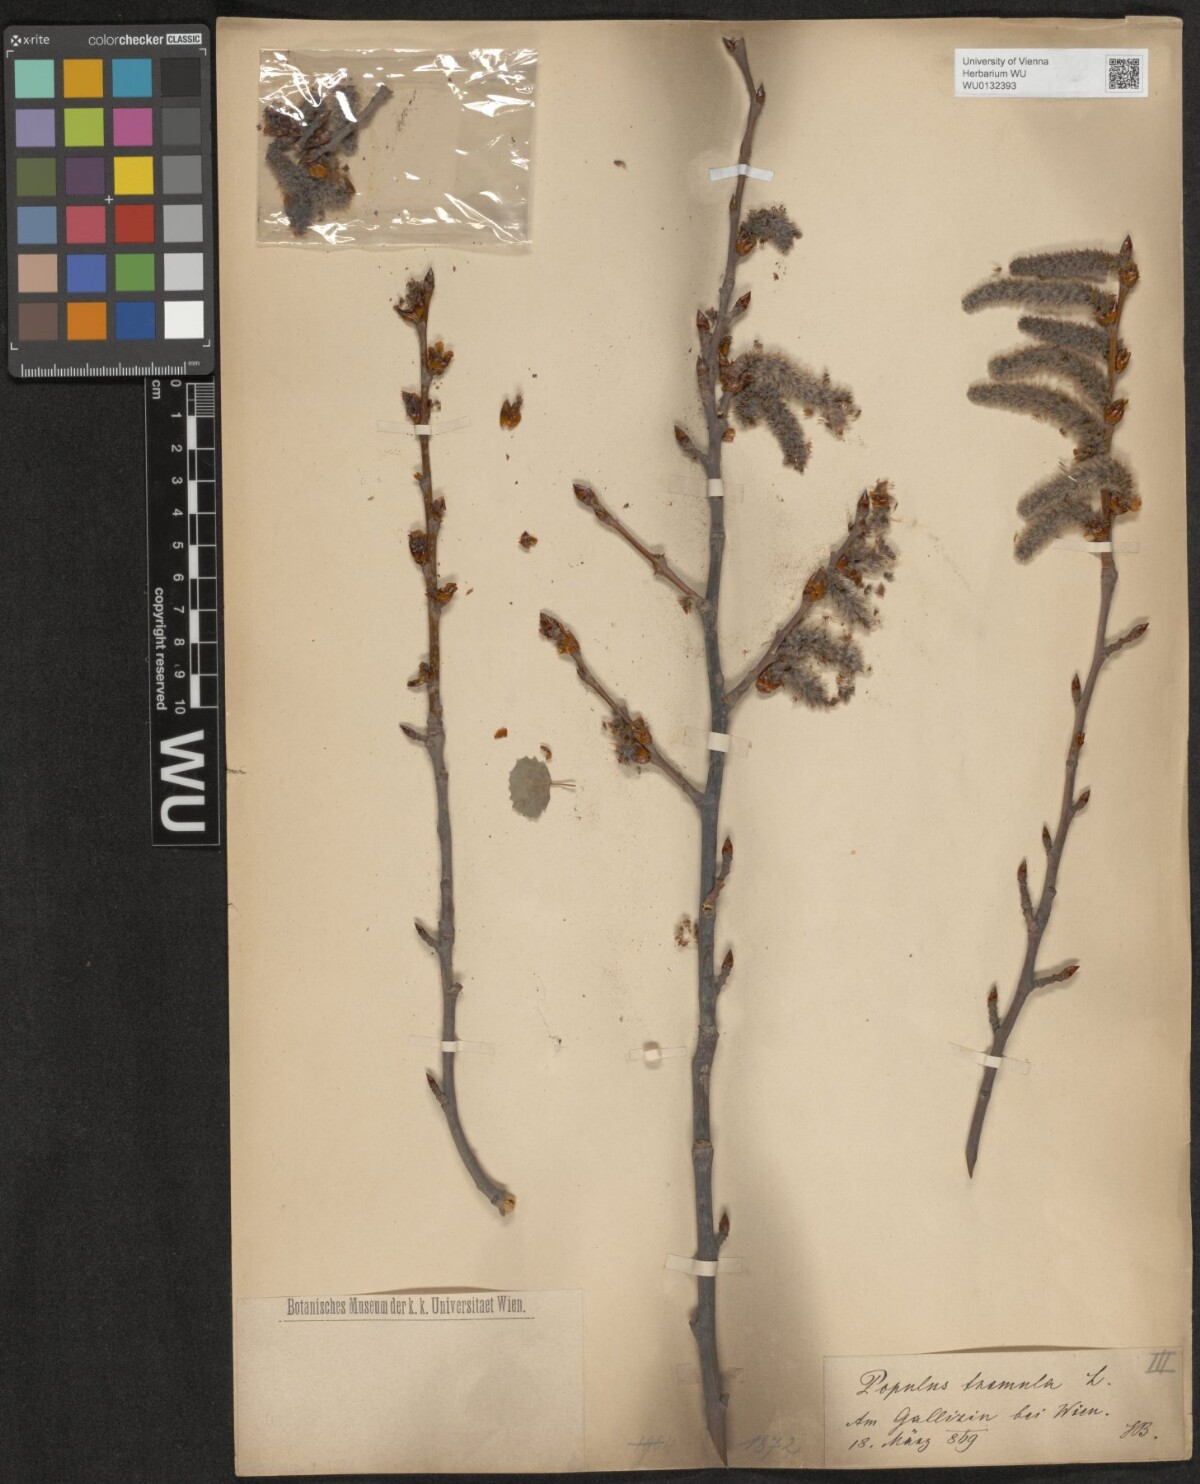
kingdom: Plantae
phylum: Tracheophyta
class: Magnoliopsida
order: Malpighiales
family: Salicaceae
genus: Populus
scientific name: Populus tremula
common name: European aspen
